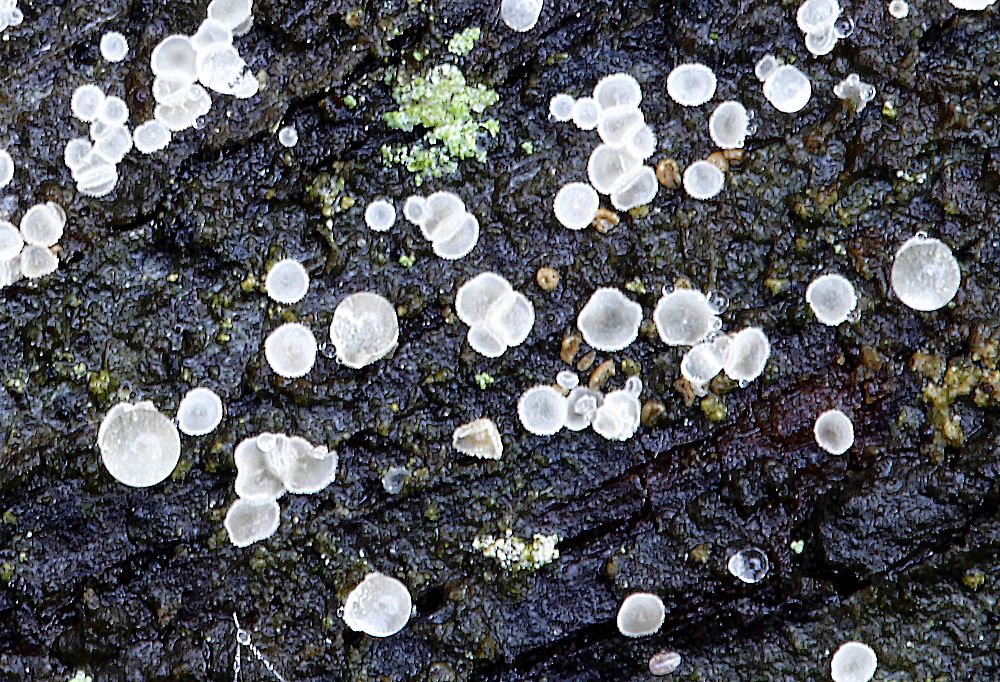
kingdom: Fungi
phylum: Ascomycota
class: Leotiomycetes
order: Helotiales
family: Hyaloscyphaceae
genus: Hyaloscypha
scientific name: Hyaloscypha
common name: klarskive
